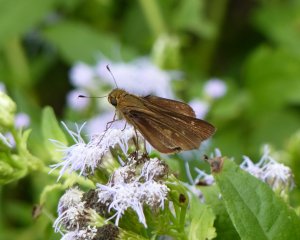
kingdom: Animalia
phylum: Arthropoda
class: Insecta
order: Lepidoptera
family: Hesperiidae
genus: Panoquina
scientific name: Panoquina ocola
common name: Ocola Skipper
